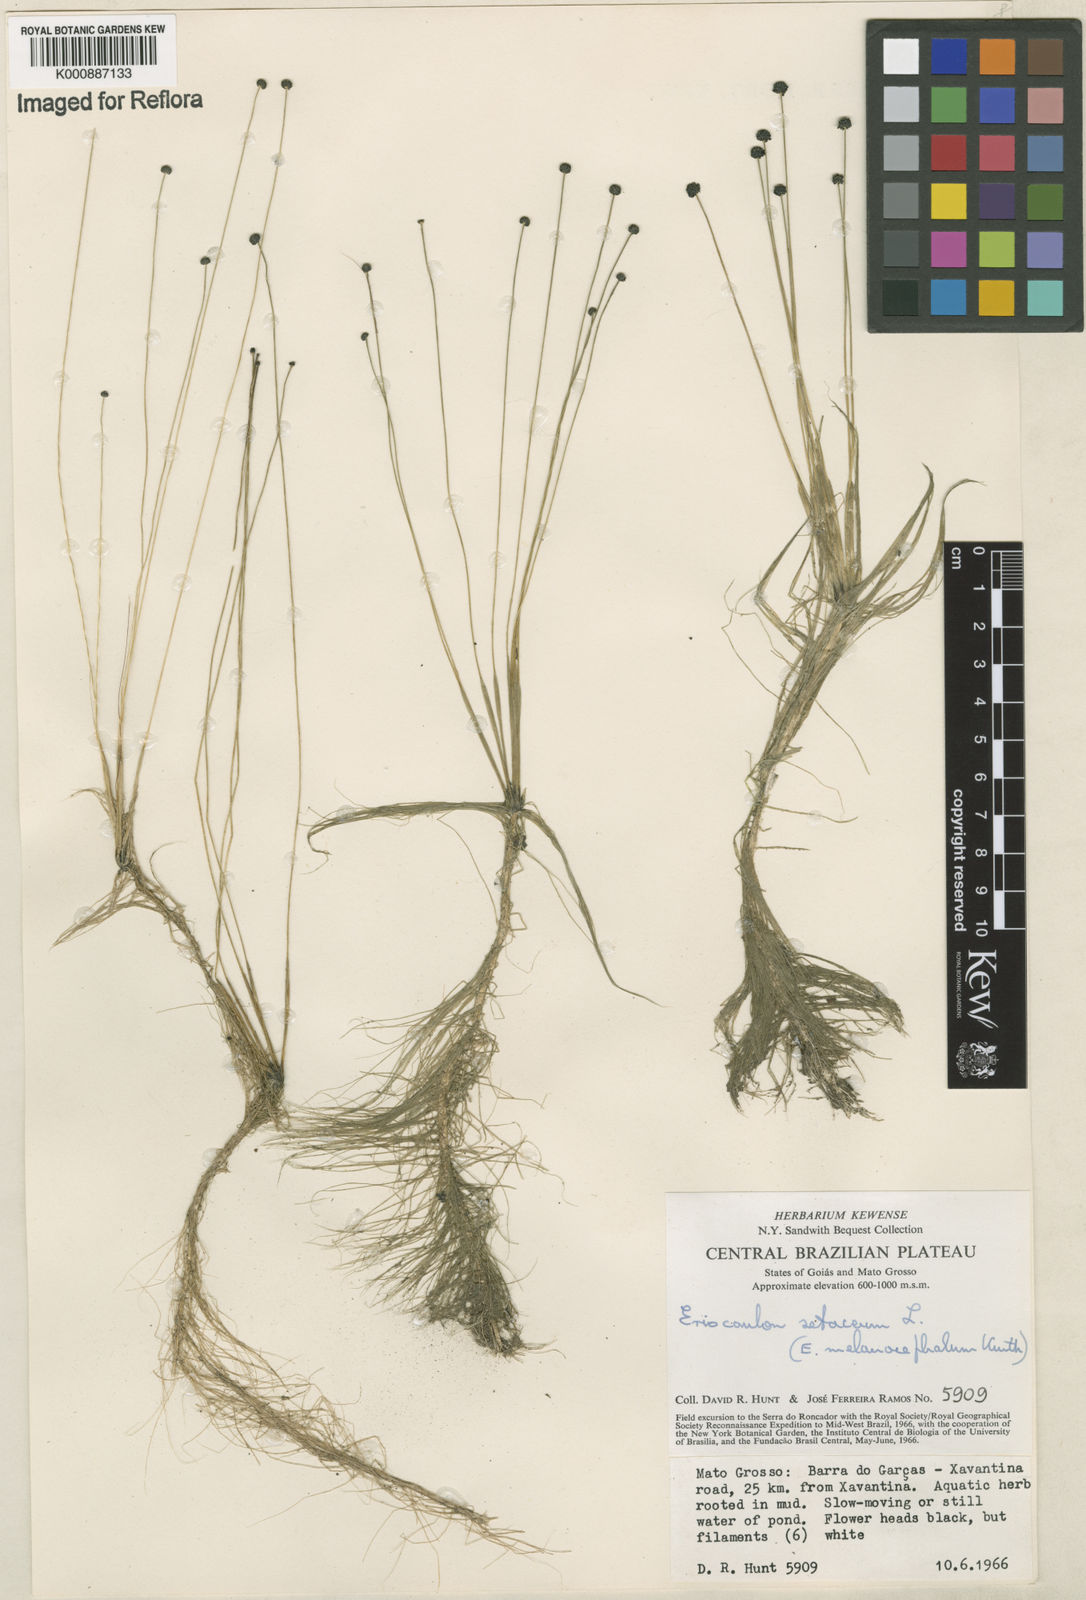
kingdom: Plantae
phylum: Tracheophyta
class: Liliopsida
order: Poales
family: Eriocaulaceae
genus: Eriocaulon
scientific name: Eriocaulon setaceum
